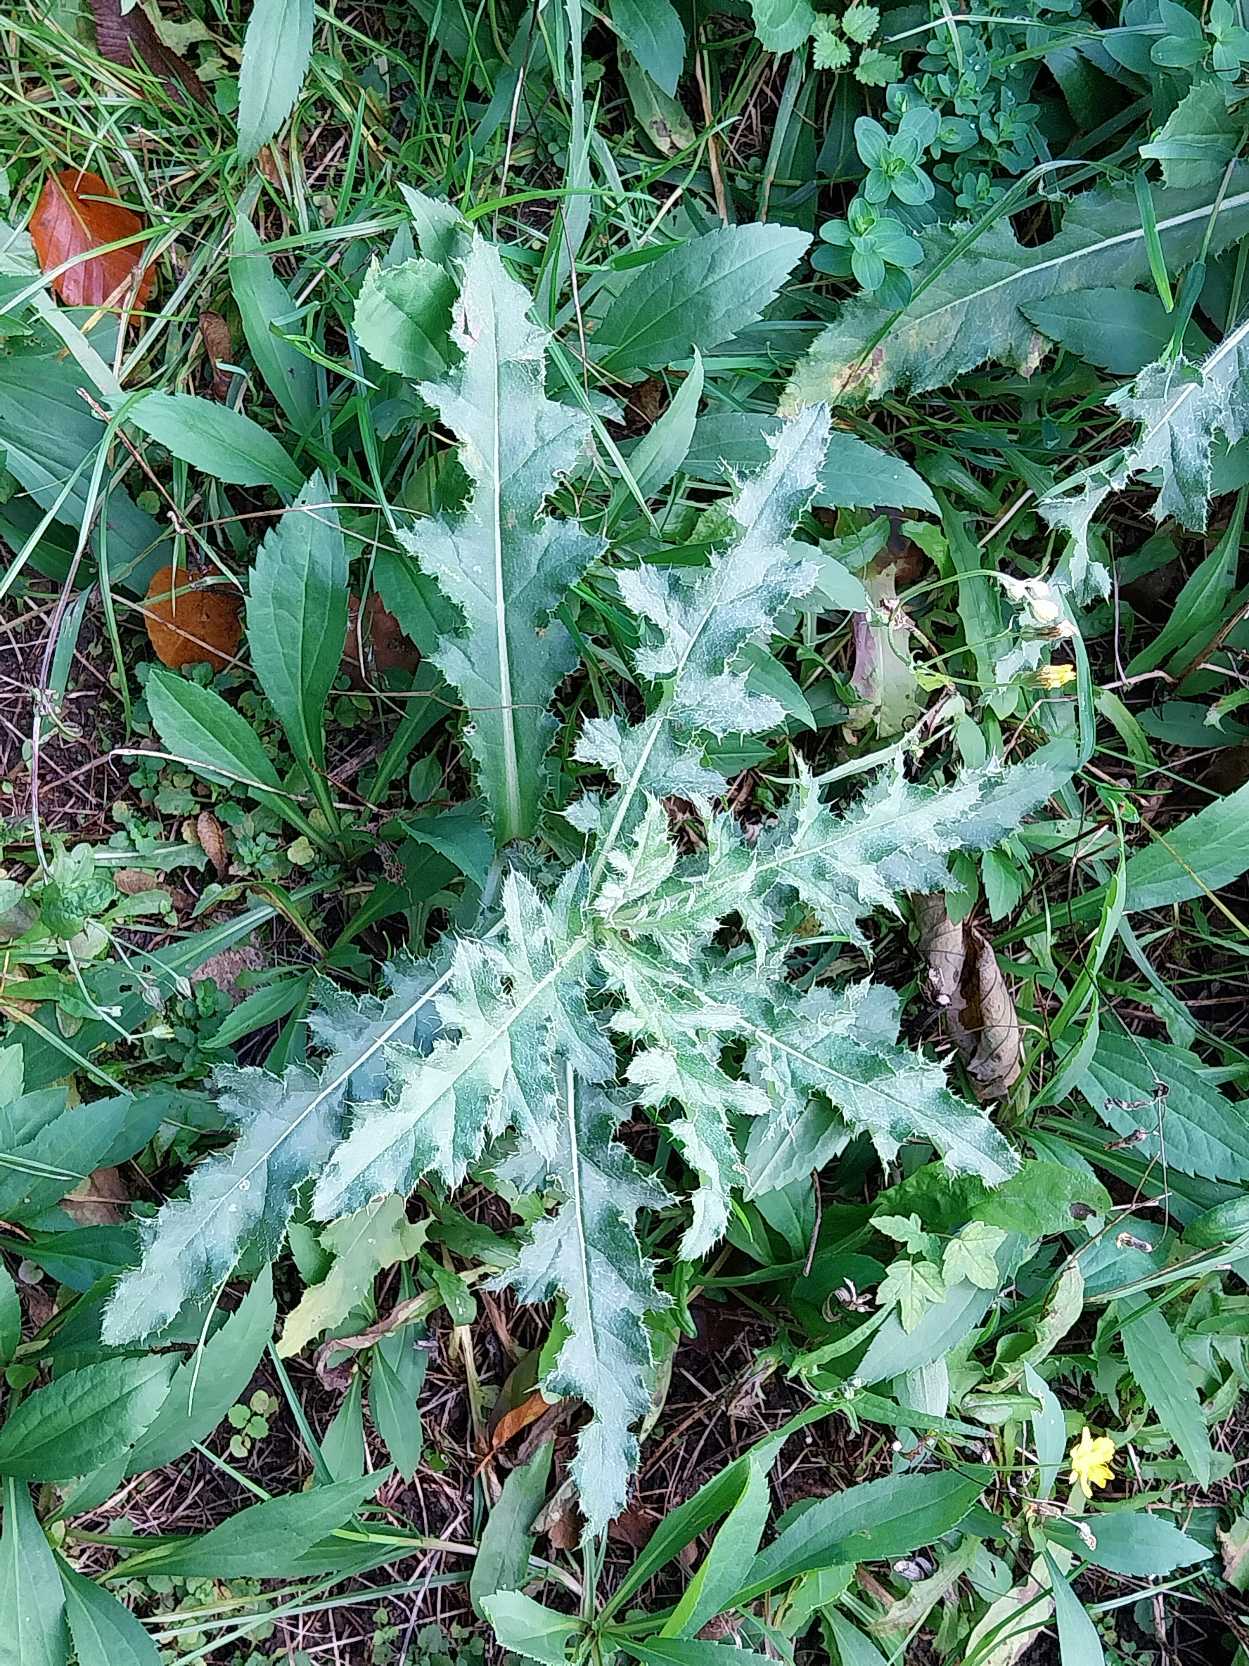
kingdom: Plantae
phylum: Tracheophyta
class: Magnoliopsida
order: Asterales
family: Asteraceae
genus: Cirsium
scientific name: Cirsium arvense
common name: Ager-tidsel
